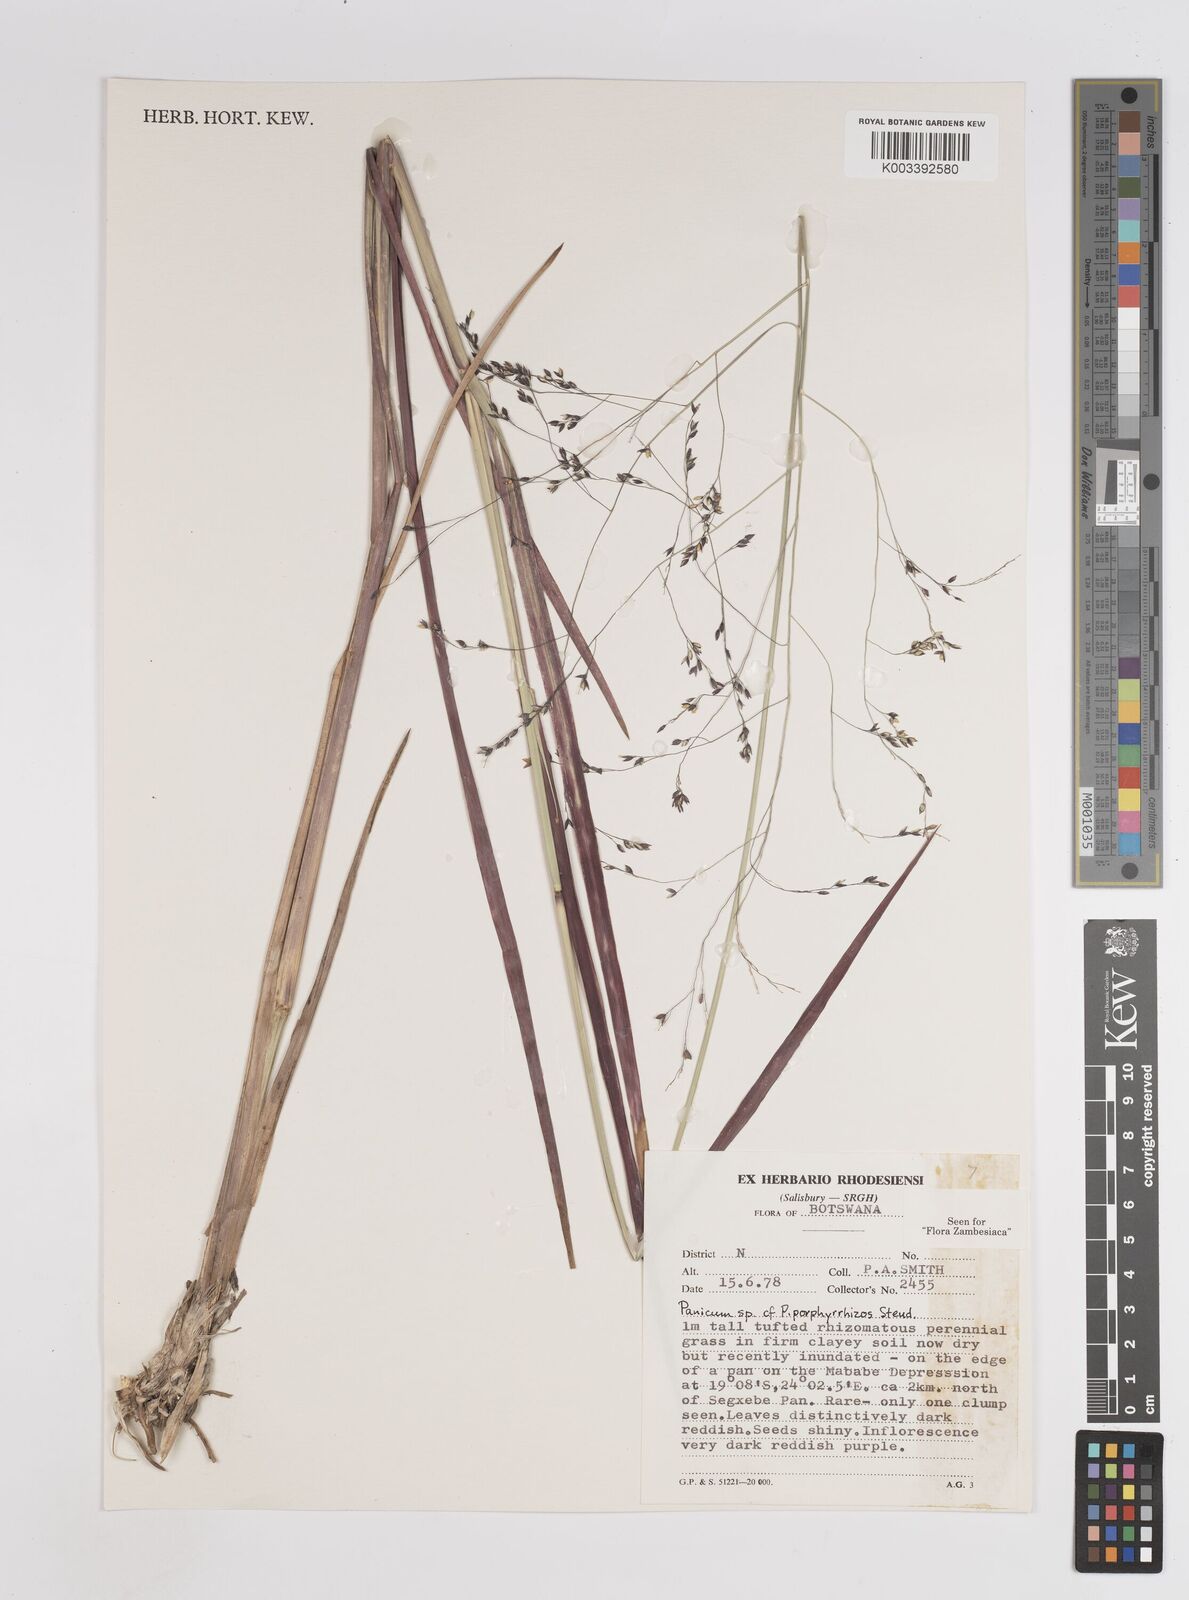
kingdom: Plantae
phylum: Tracheophyta
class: Liliopsida
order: Poales
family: Poaceae
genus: Panicum
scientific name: Panicum porphyrrhizos
